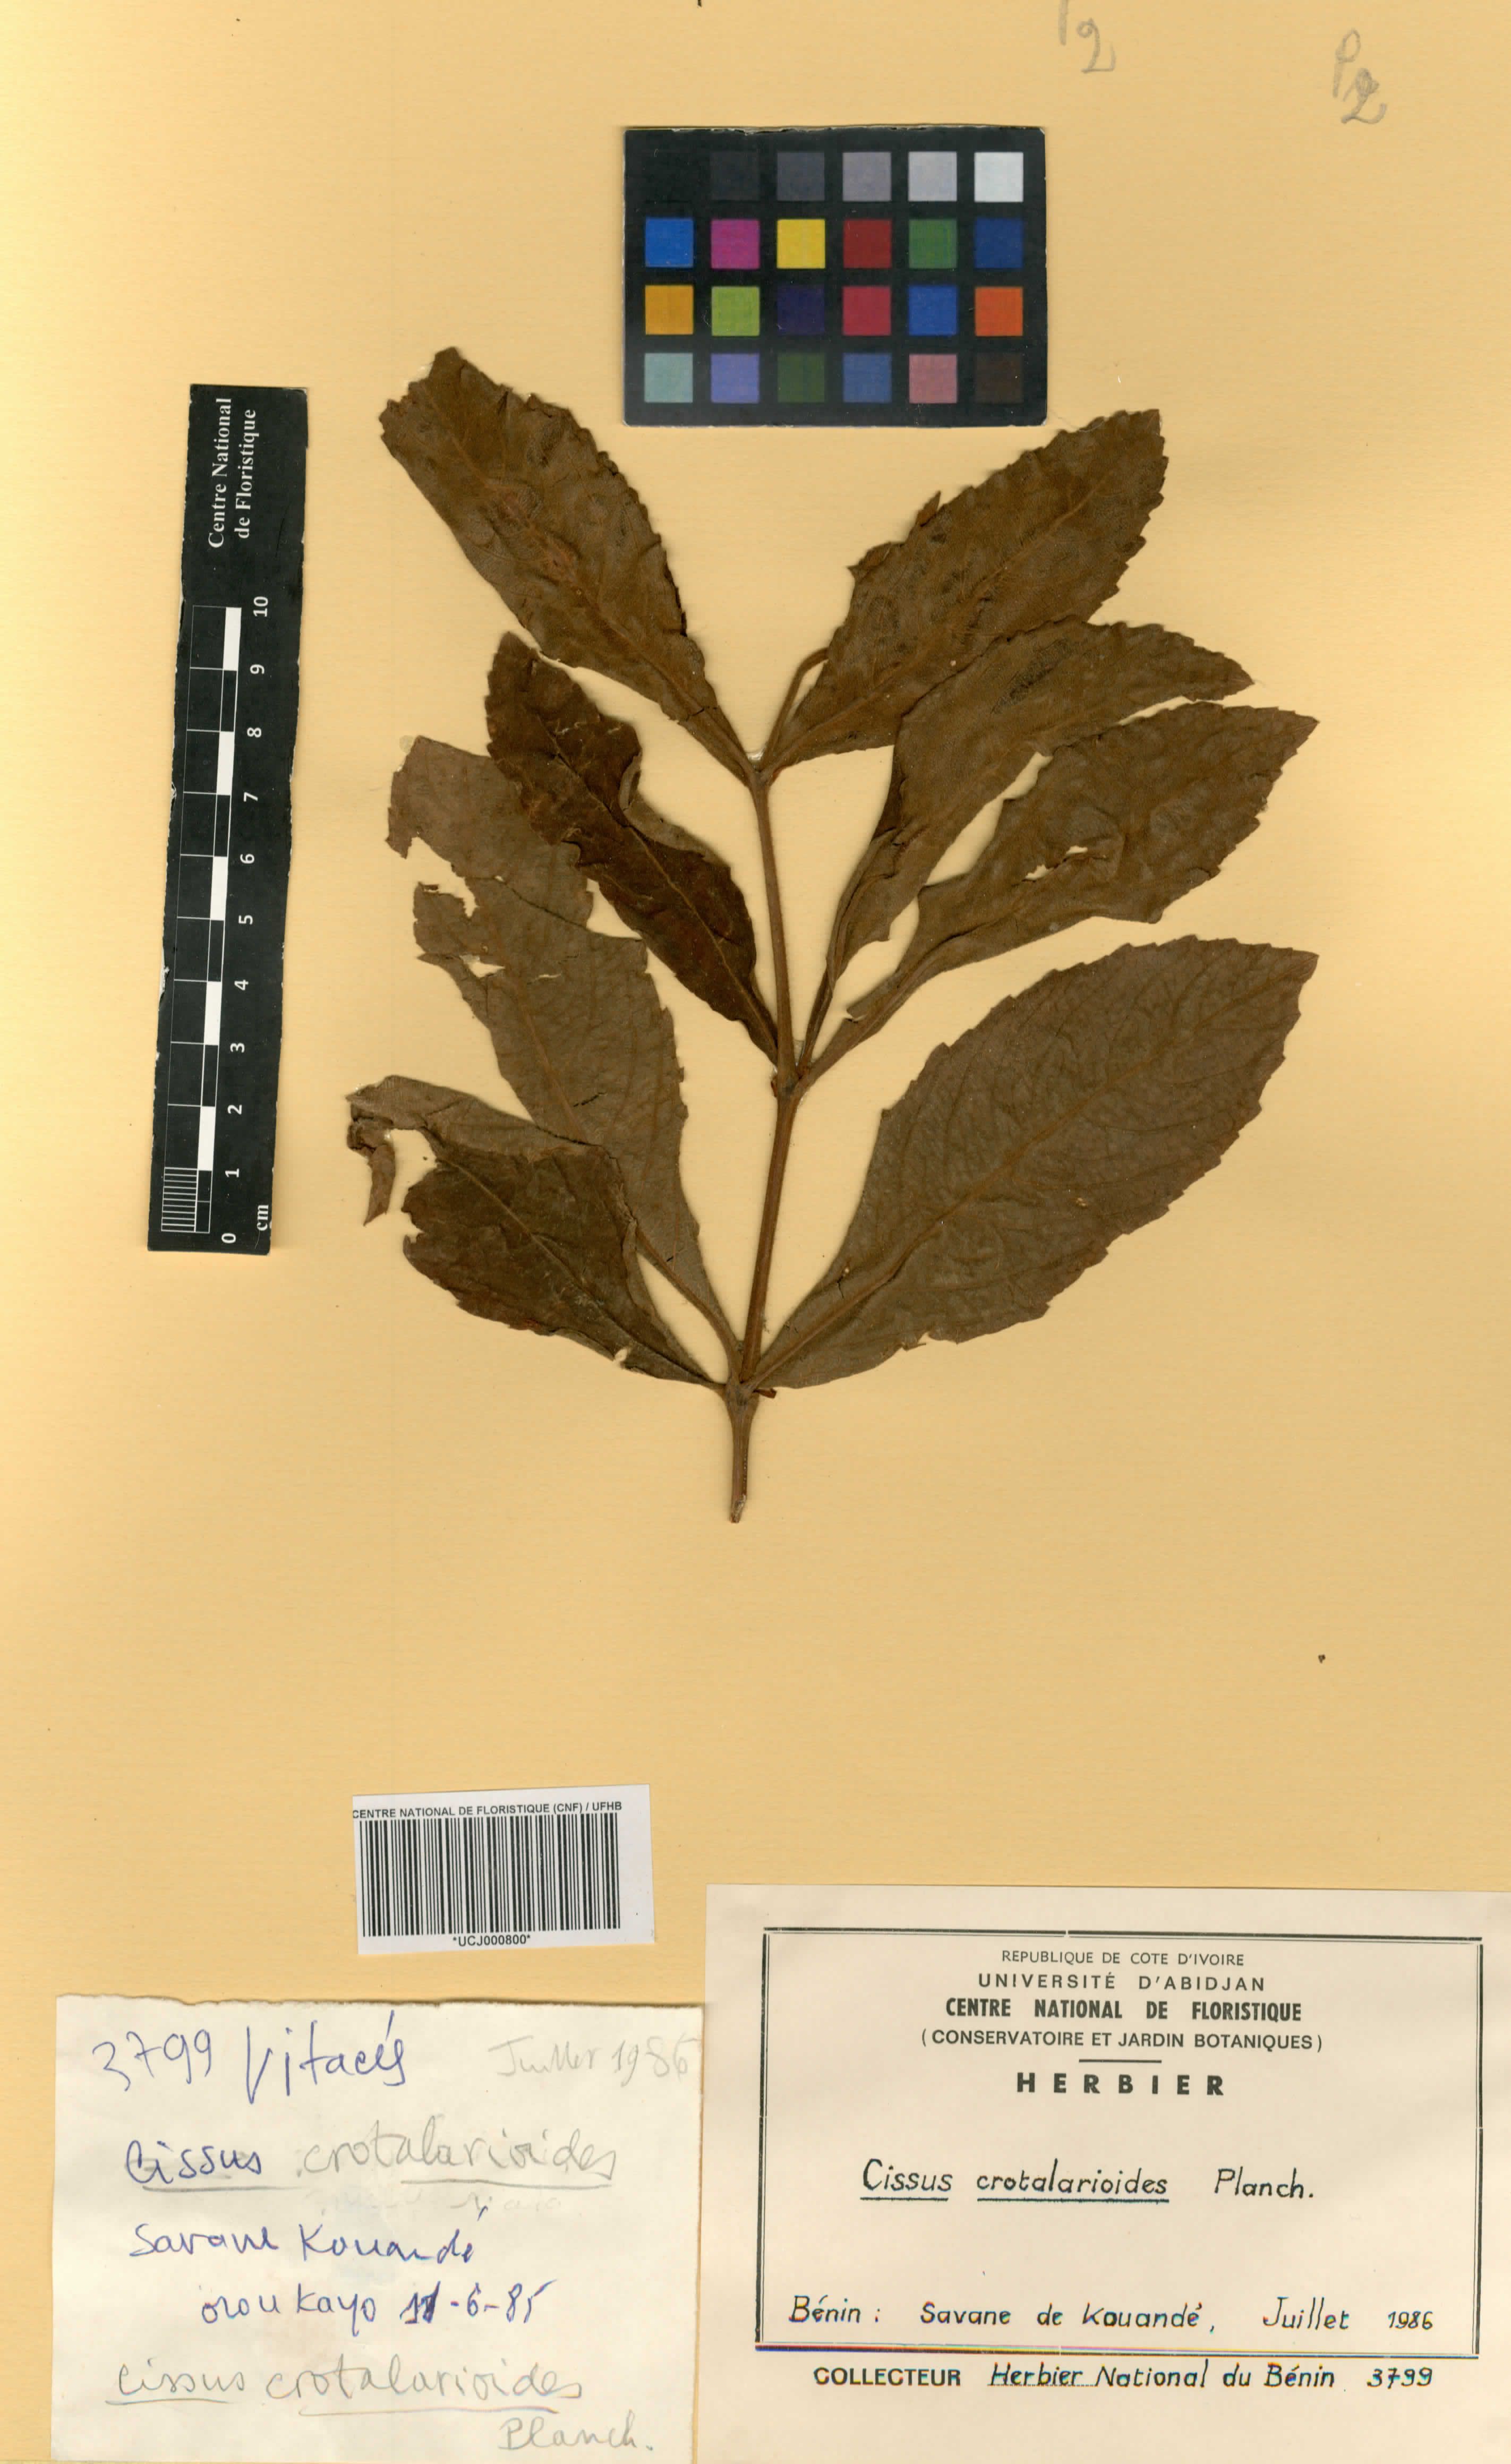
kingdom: Plantae
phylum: Tracheophyta
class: Magnoliopsida
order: Vitales
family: Vitaceae
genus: Cyphostemma
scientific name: Cyphostemma crotalarioides
